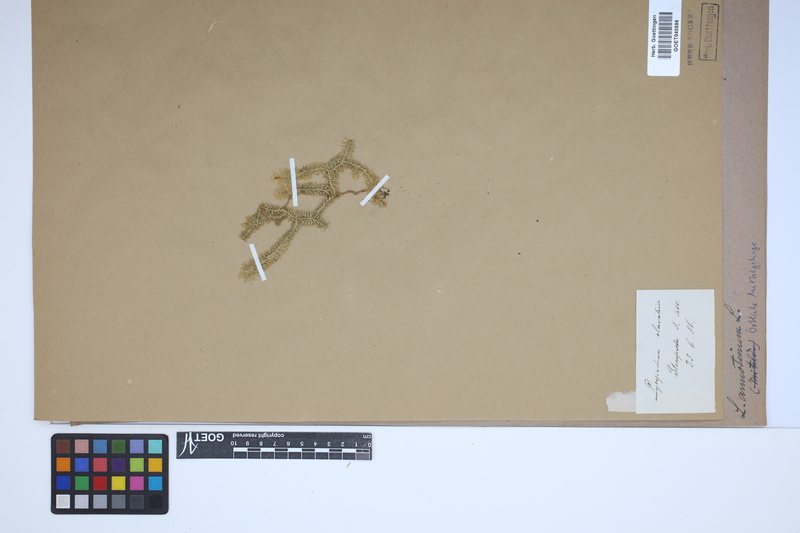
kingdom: Plantae
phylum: Tracheophyta
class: Lycopodiopsida
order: Lycopodiales
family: Lycopodiaceae
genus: Spinulum
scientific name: Spinulum annotinum
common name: Interrupted club-moss
